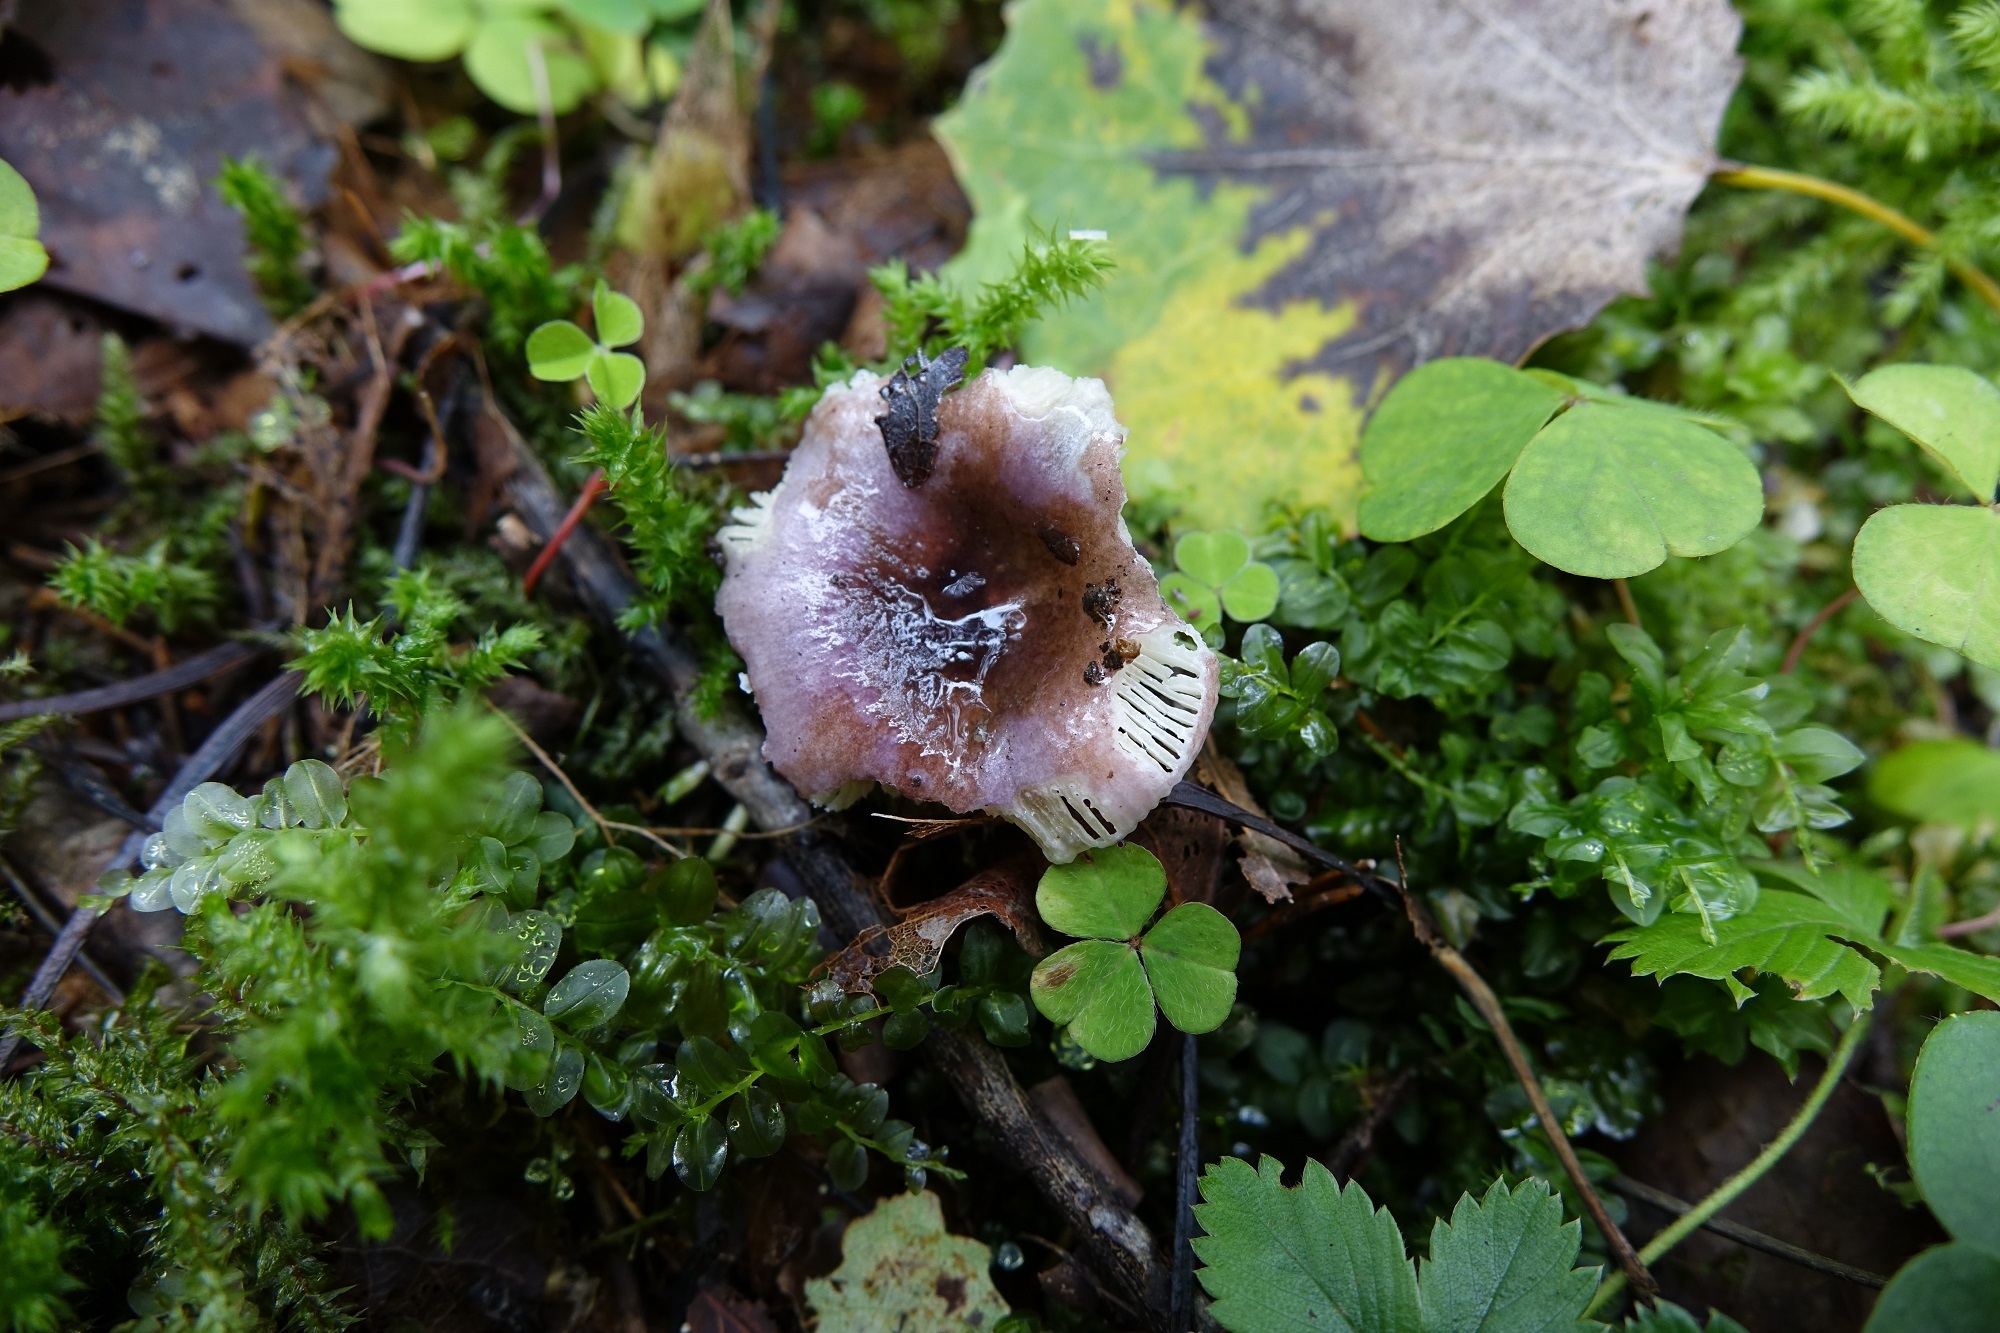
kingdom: Fungi
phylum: Basidiomycota
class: Agaricomycetes
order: Russulales
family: Russulaceae
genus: Russula
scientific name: Russula pelargonia
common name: Pelargonium brittlegill
